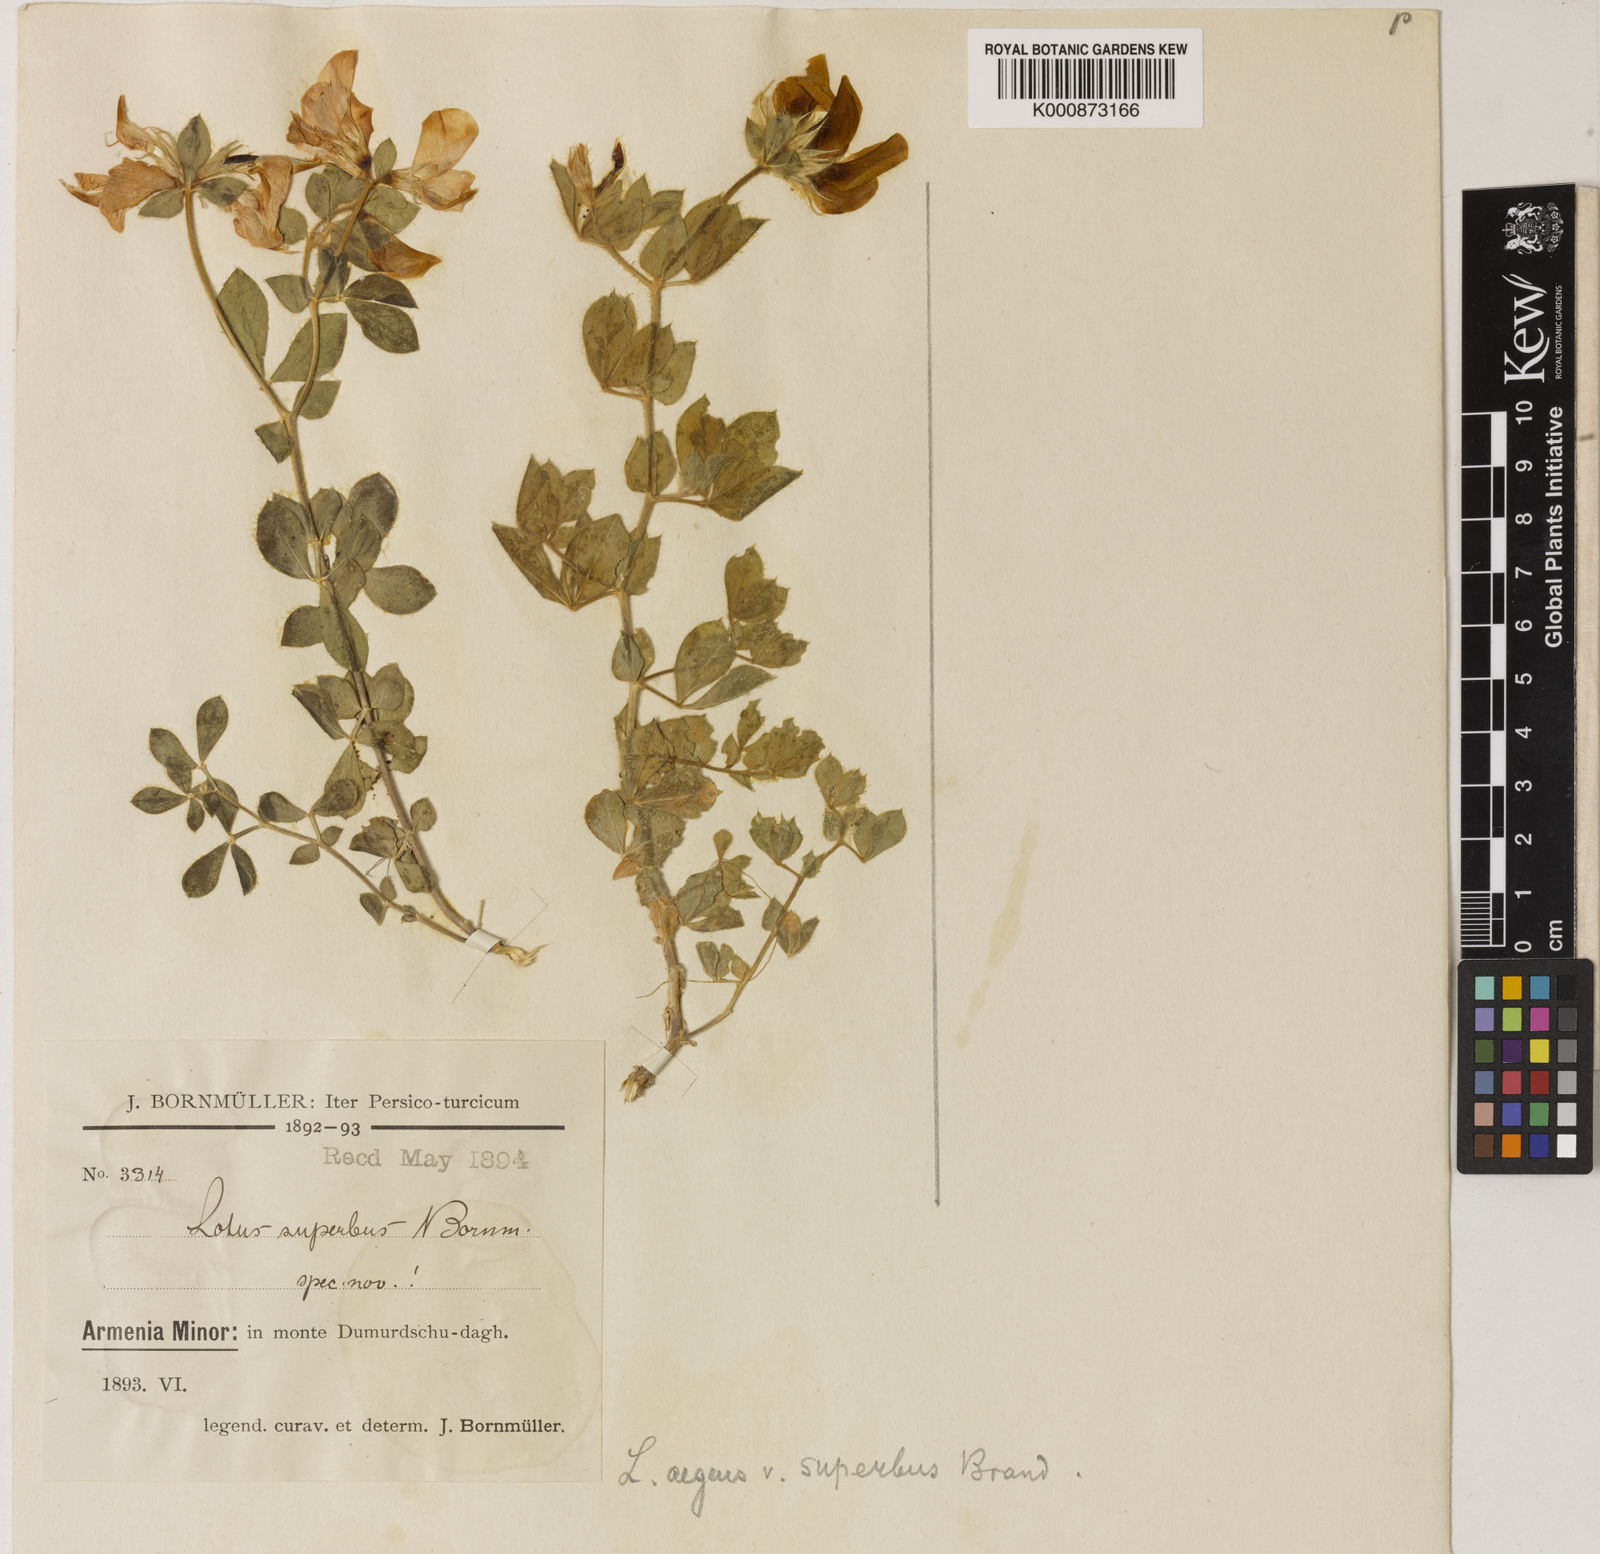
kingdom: Plantae
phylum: Tracheophyta
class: Magnoliopsida
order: Fabales
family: Fabaceae
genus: Lotus
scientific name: Lotus
